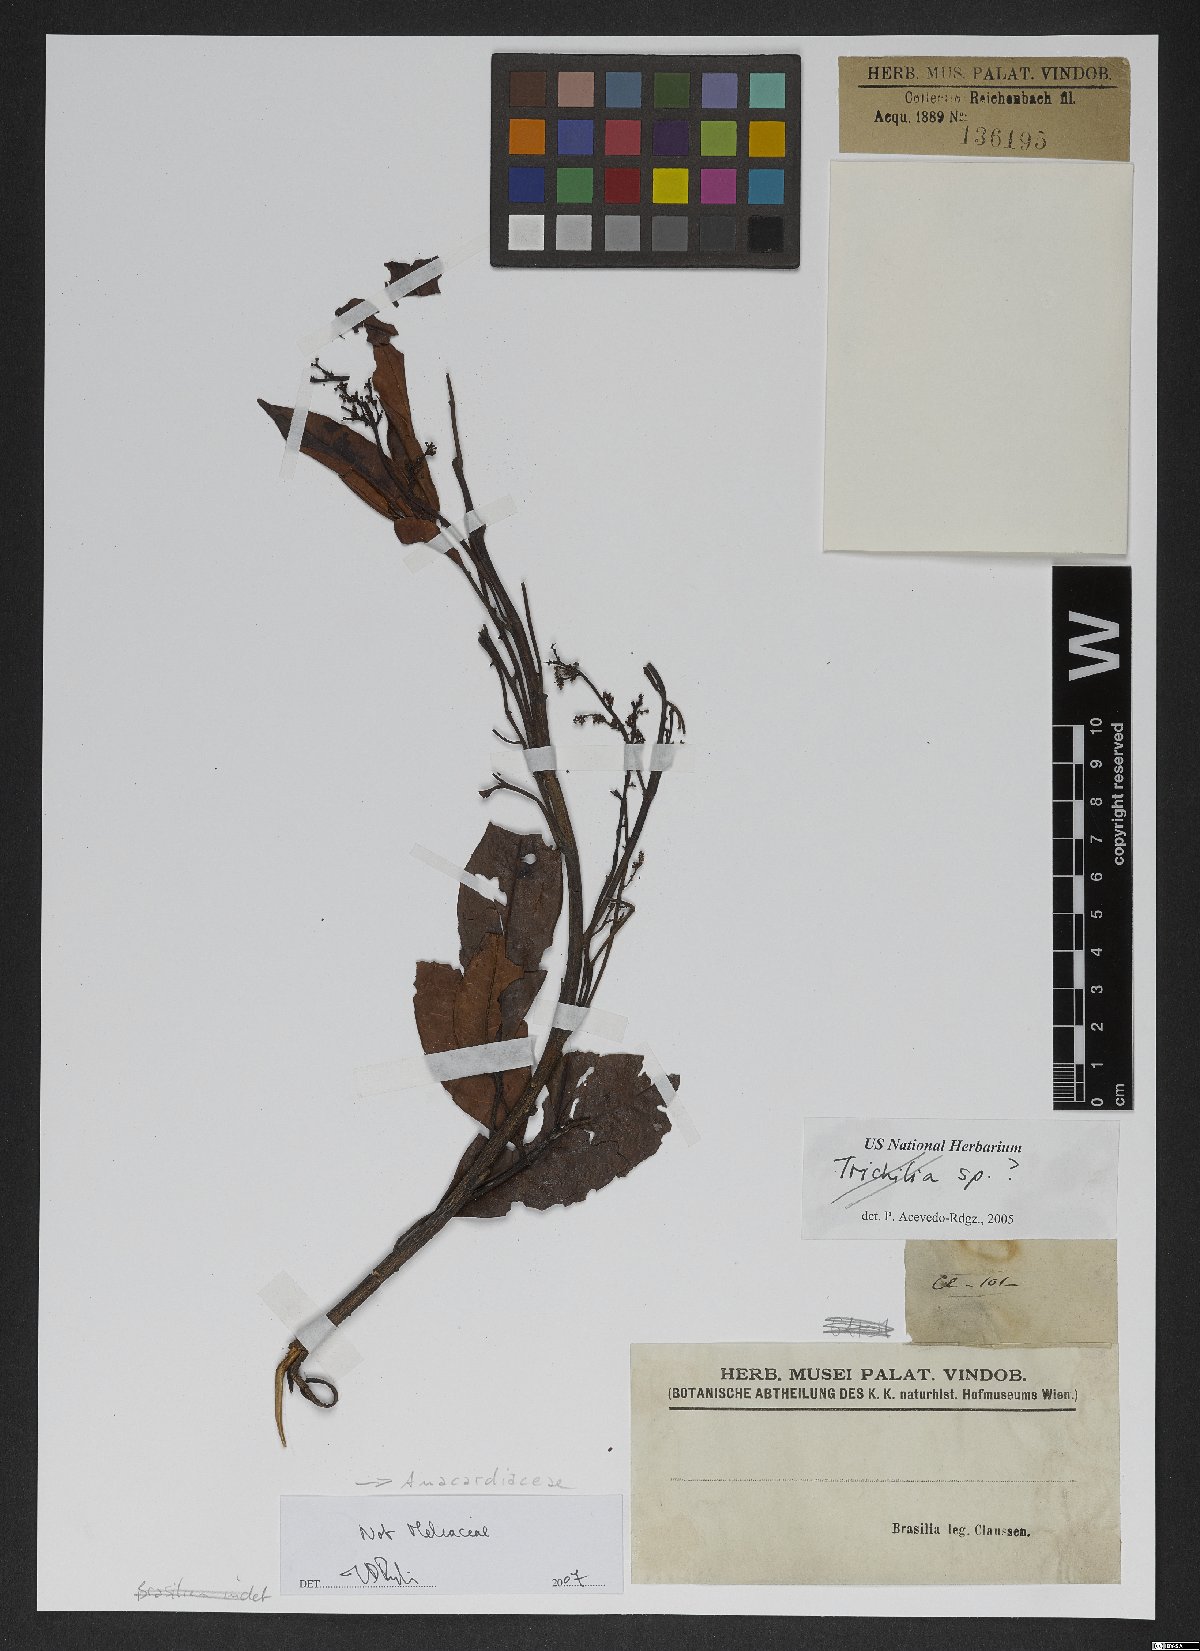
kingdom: Plantae
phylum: Tracheophyta
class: Magnoliopsida
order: Sapindales
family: Anacardiaceae
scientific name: Anacardiaceae
